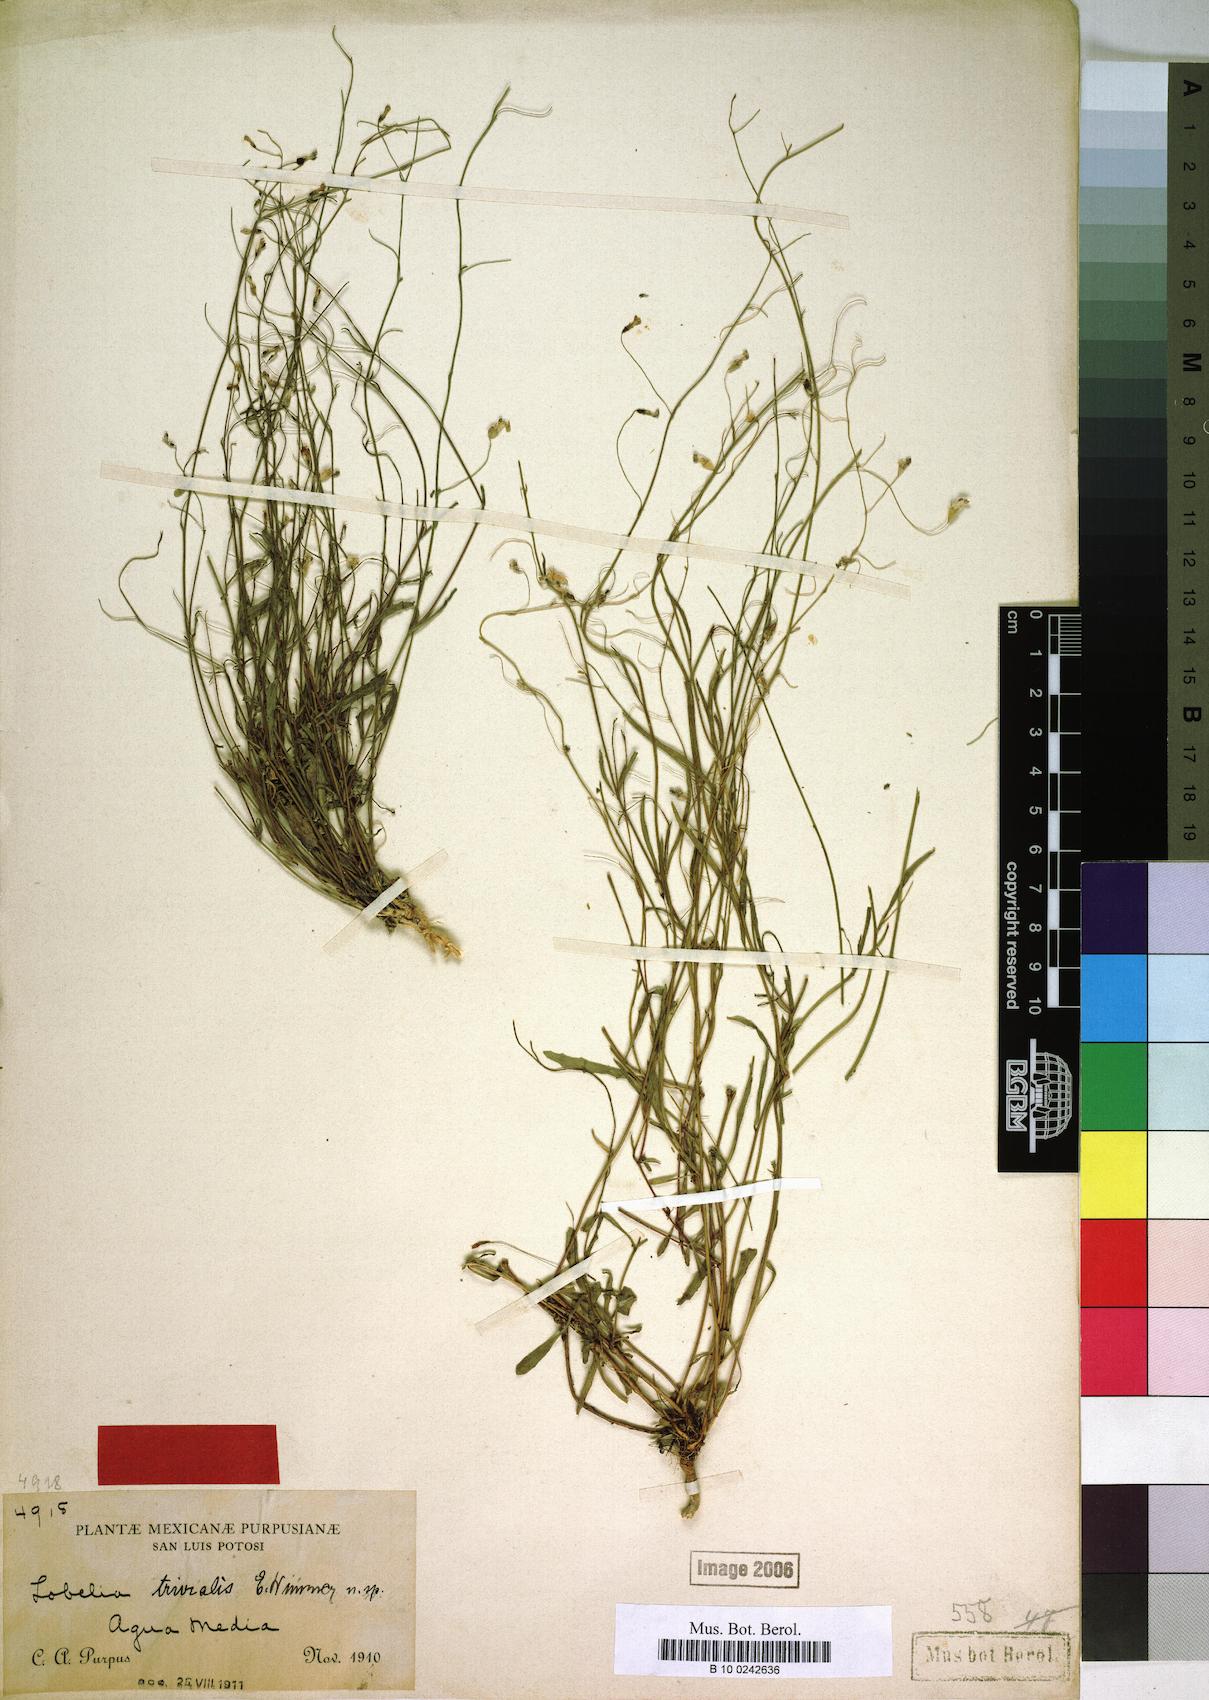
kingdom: Plantae
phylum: Tracheophyta
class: Magnoliopsida
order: Asterales
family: Campanulaceae
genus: Lobelia
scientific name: Lobelia divaricata
